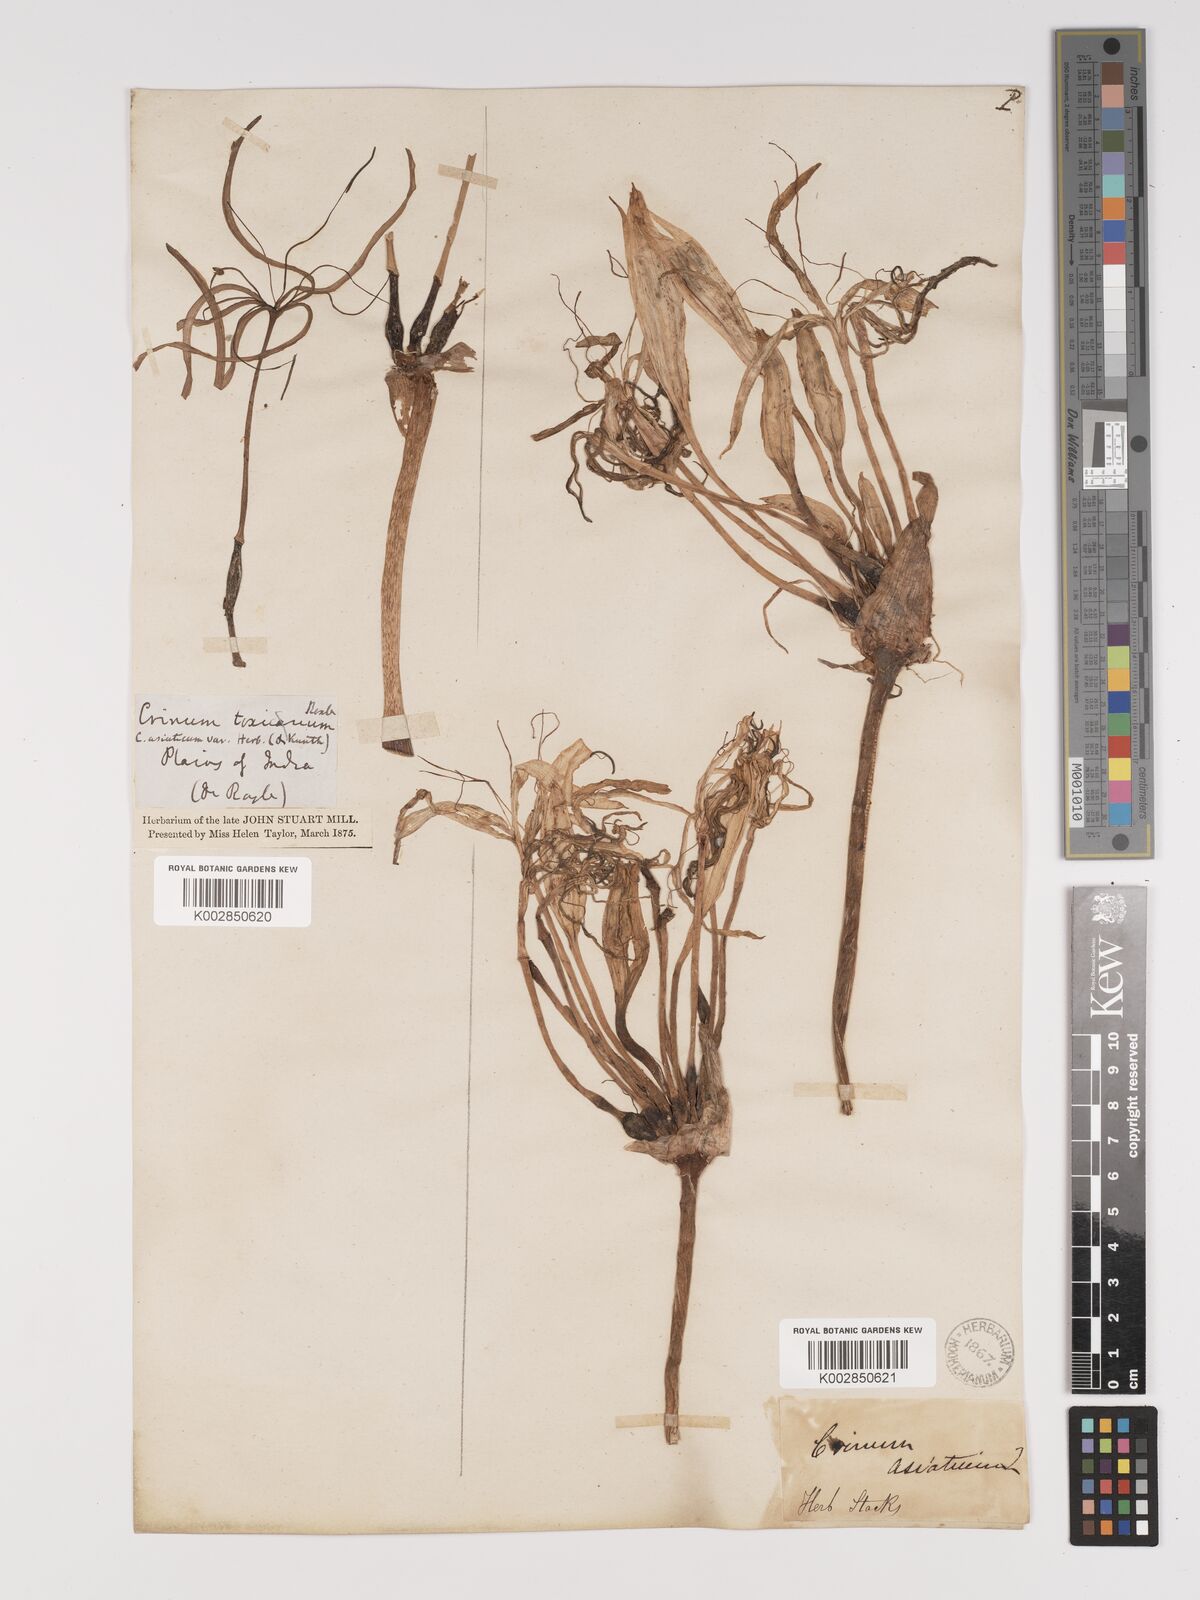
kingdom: Plantae
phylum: Tracheophyta
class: Liliopsida
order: Asparagales
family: Amaryllidaceae
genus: Crinum
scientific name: Crinum defixum
